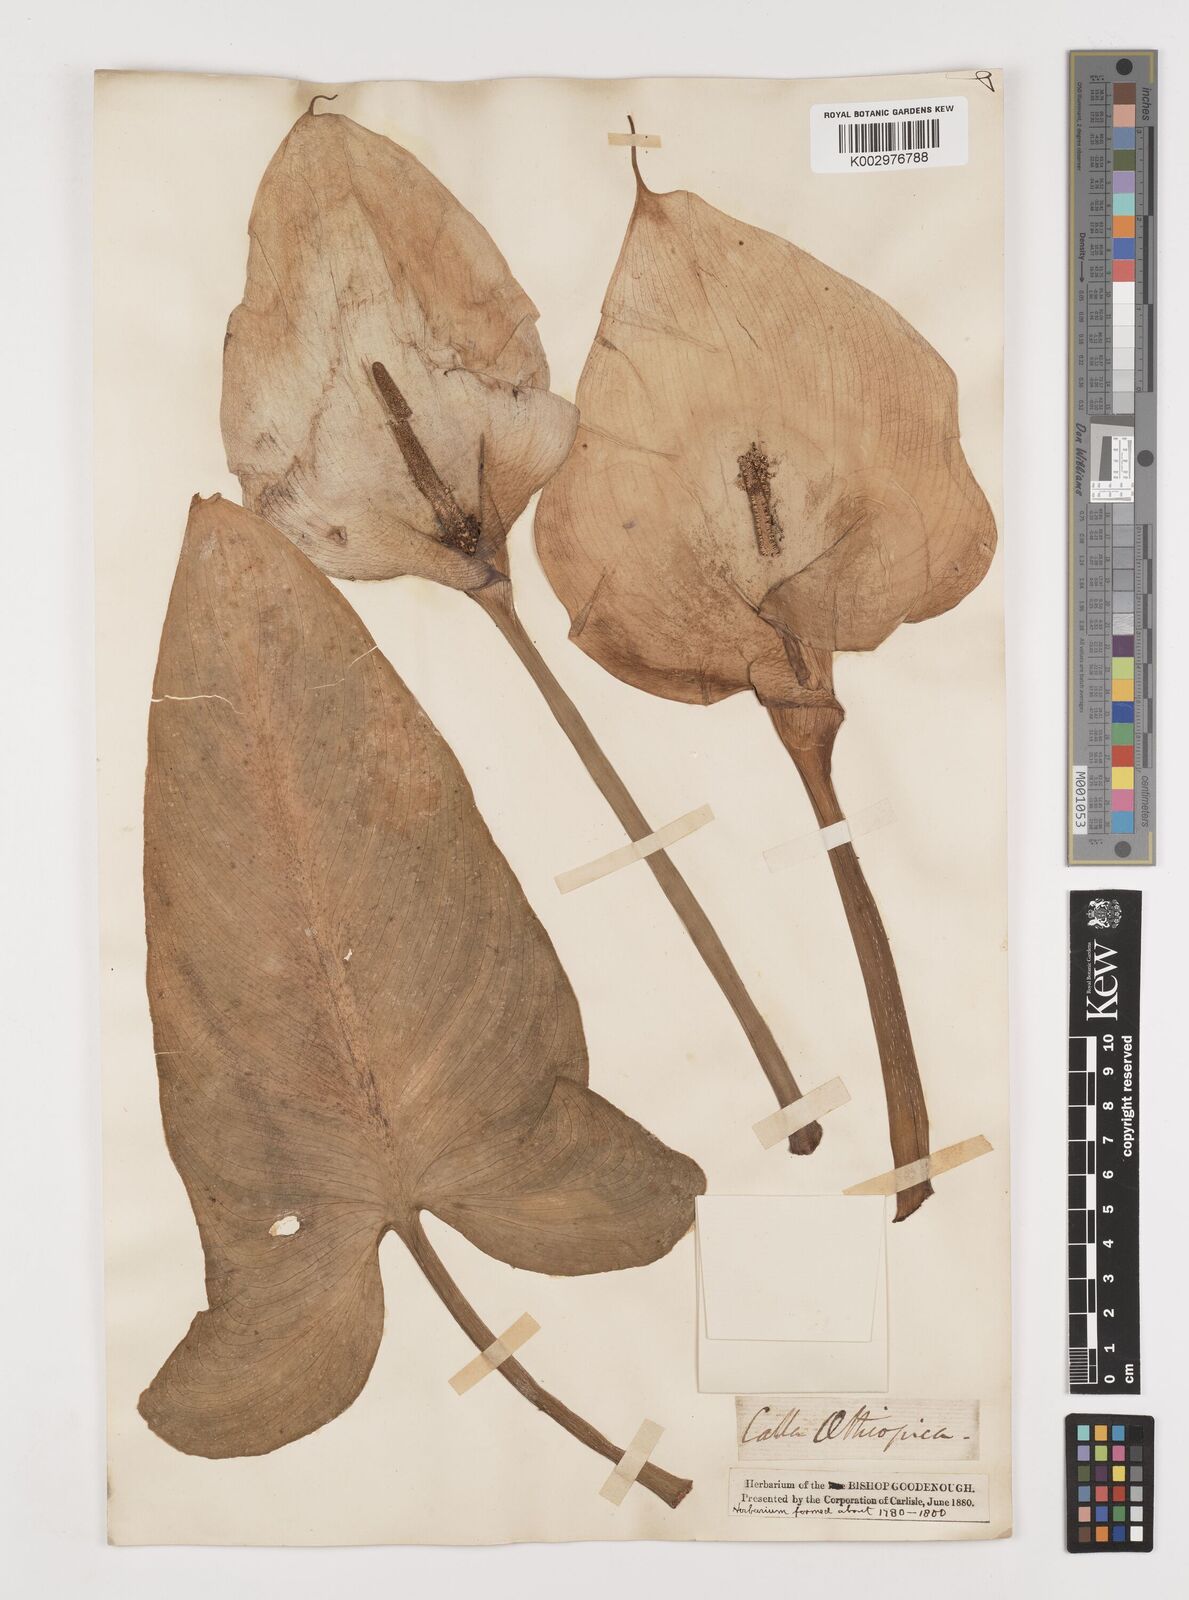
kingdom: Plantae
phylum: Tracheophyta
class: Liliopsida
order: Alismatales
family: Araceae
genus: Zantedeschia
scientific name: Zantedeschia aethiopica
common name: Altar-lily
